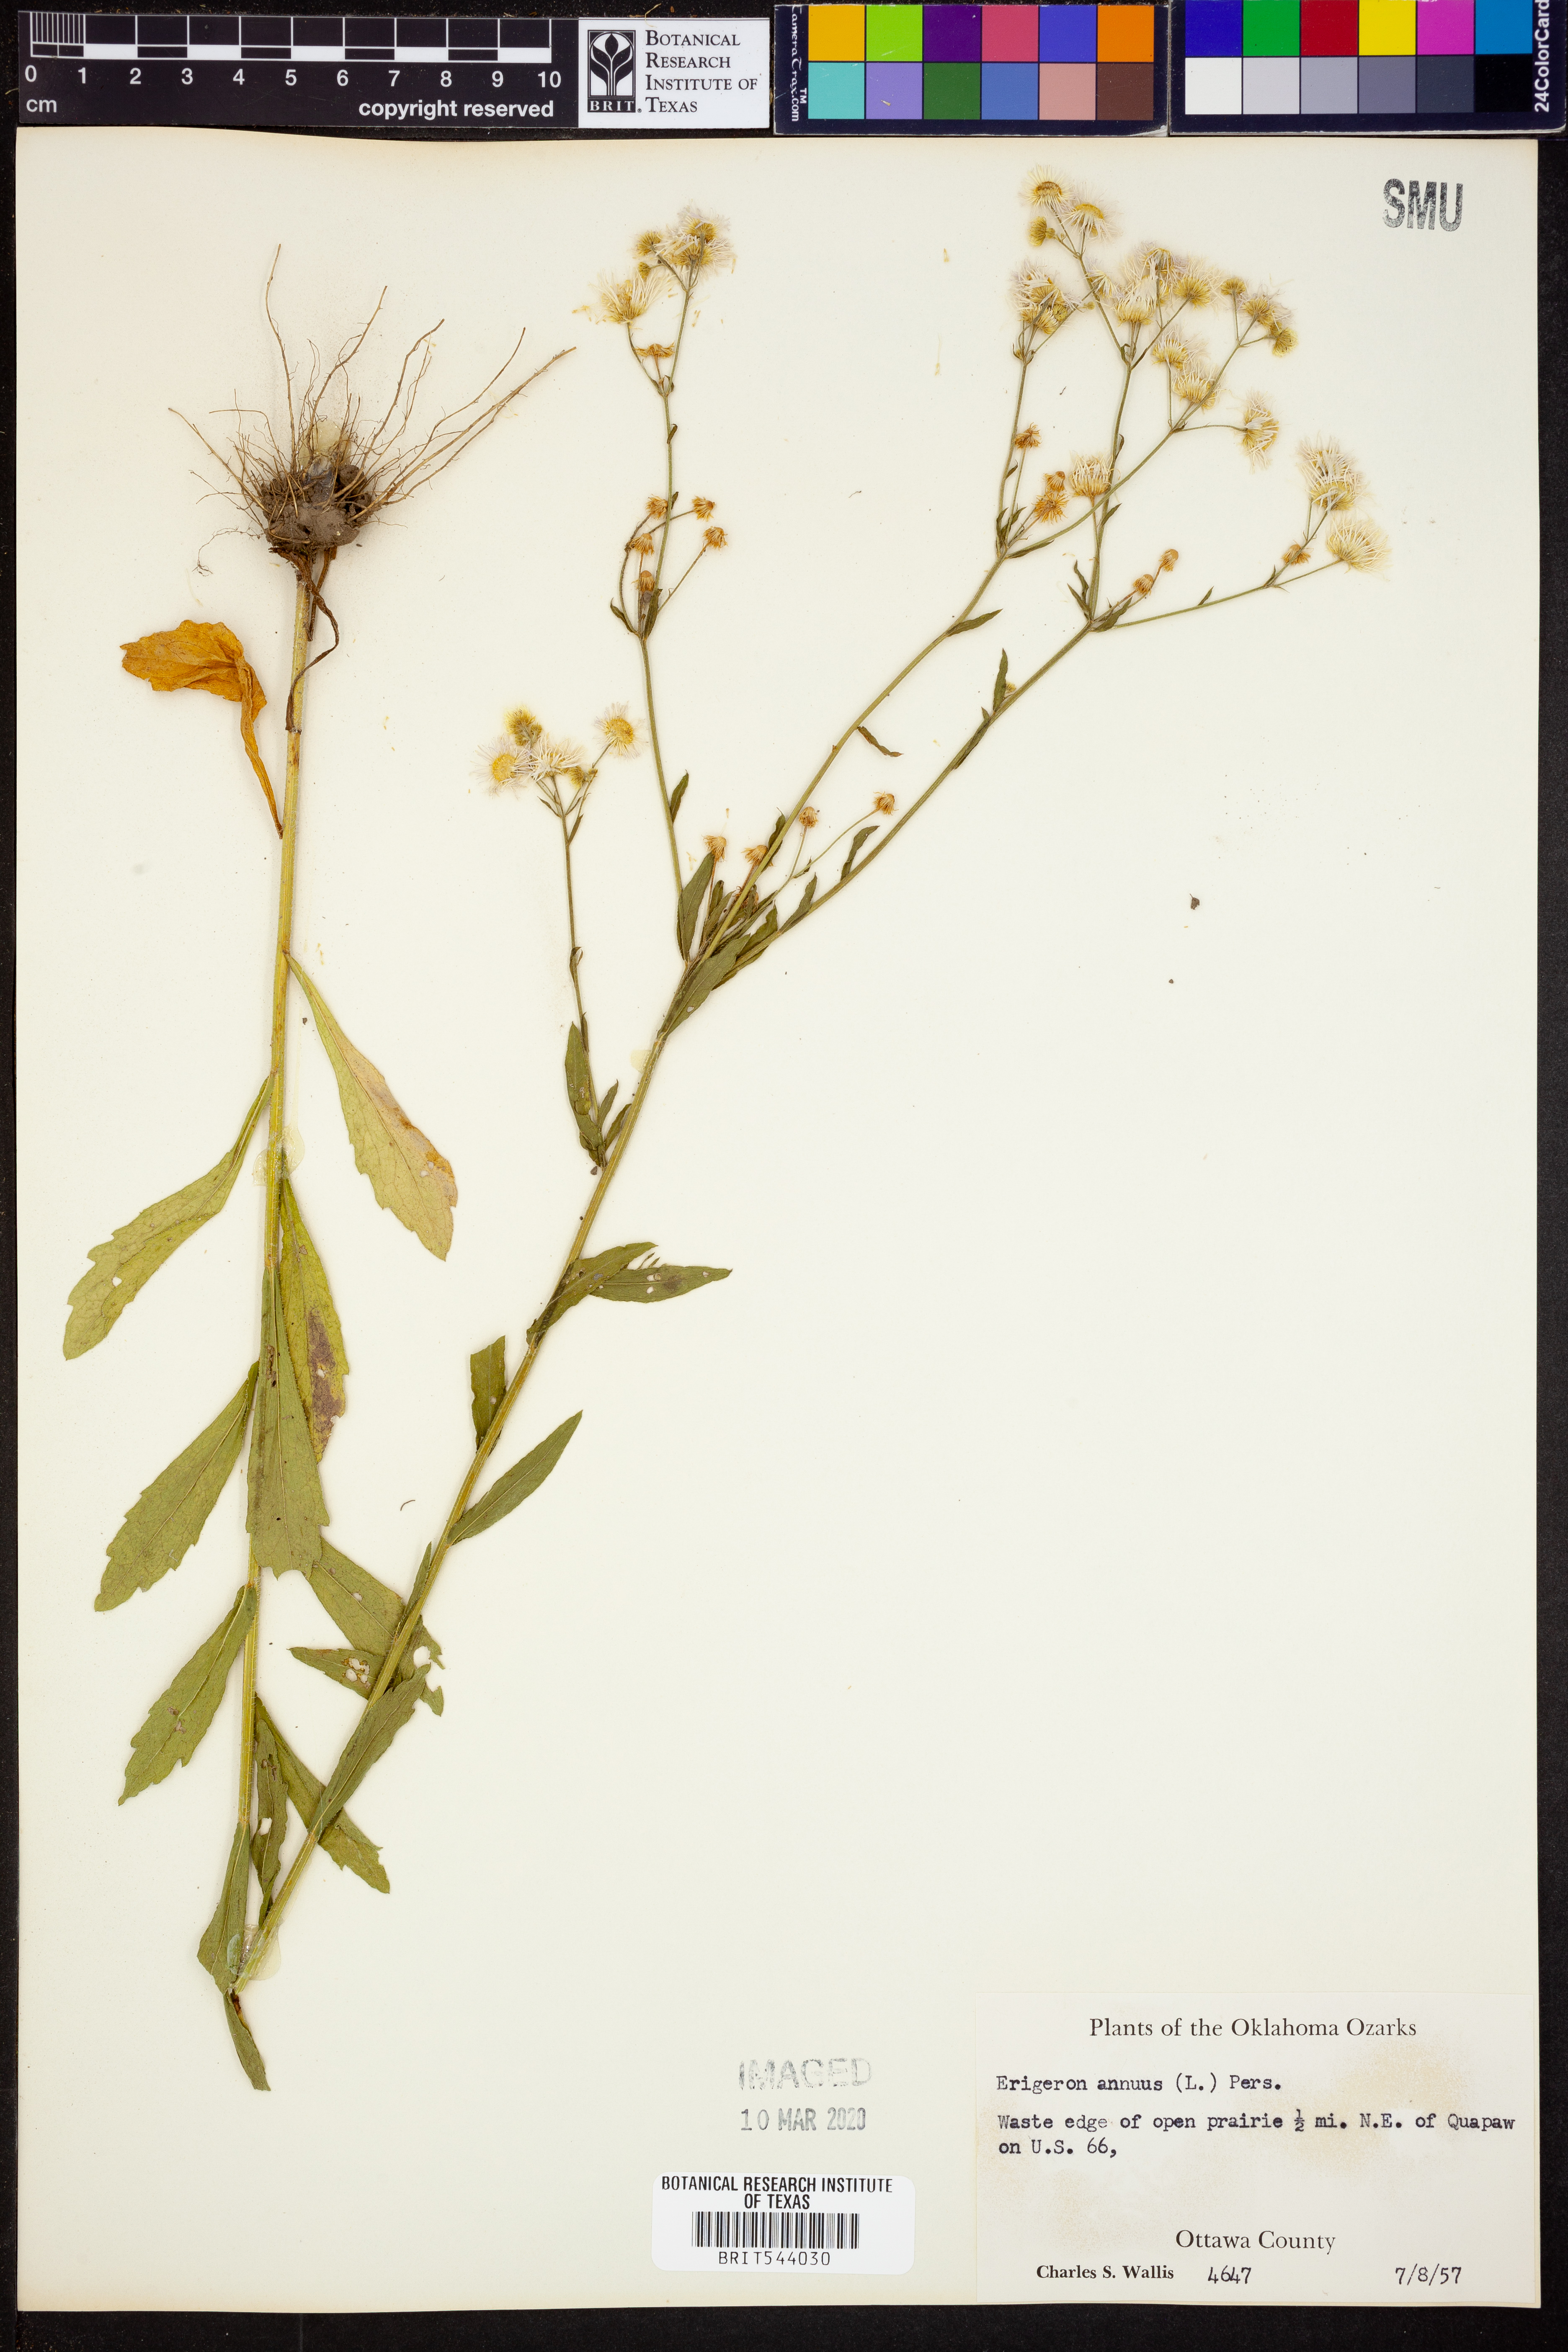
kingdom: Plantae
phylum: Tracheophyta
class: Magnoliopsida
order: Asterales
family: Asteraceae
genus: Erigeron
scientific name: Erigeron annuus
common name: Tall fleabane
